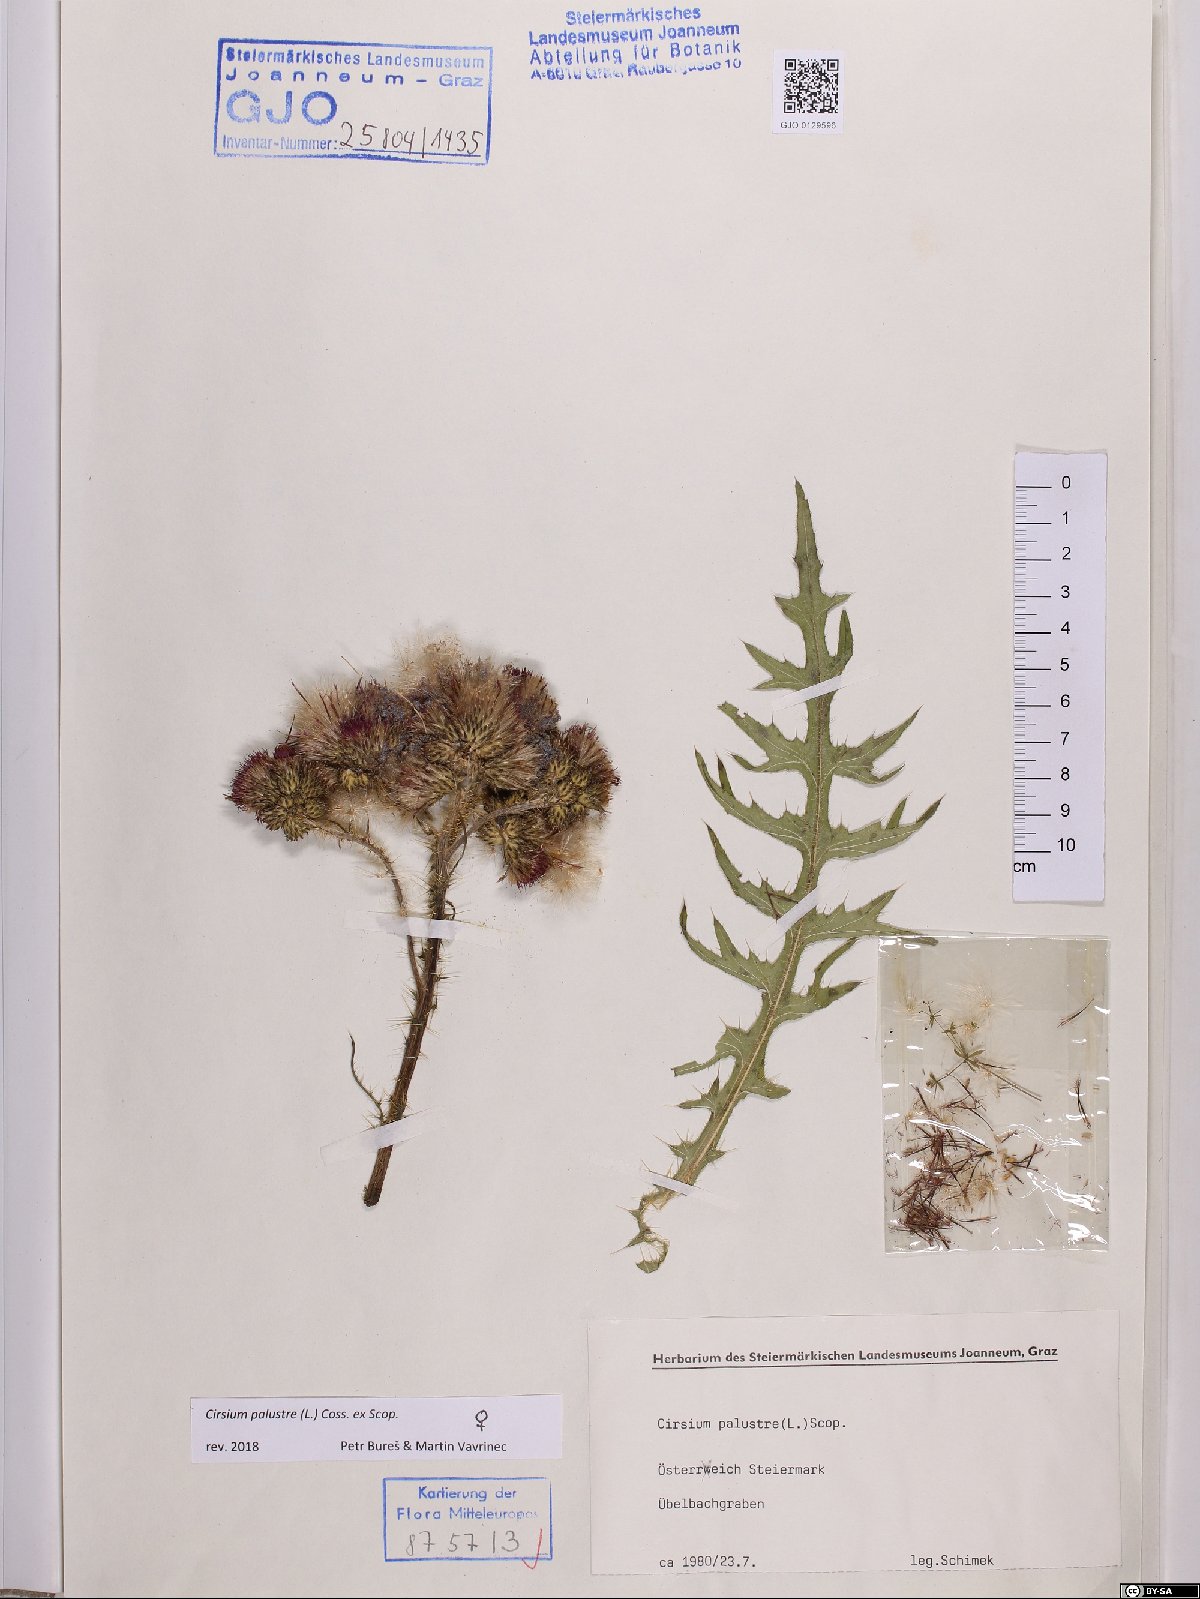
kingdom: Plantae
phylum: Tracheophyta
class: Magnoliopsida
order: Asterales
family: Asteraceae
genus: Cirsium
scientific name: Cirsium palustre
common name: Marsh thistle
